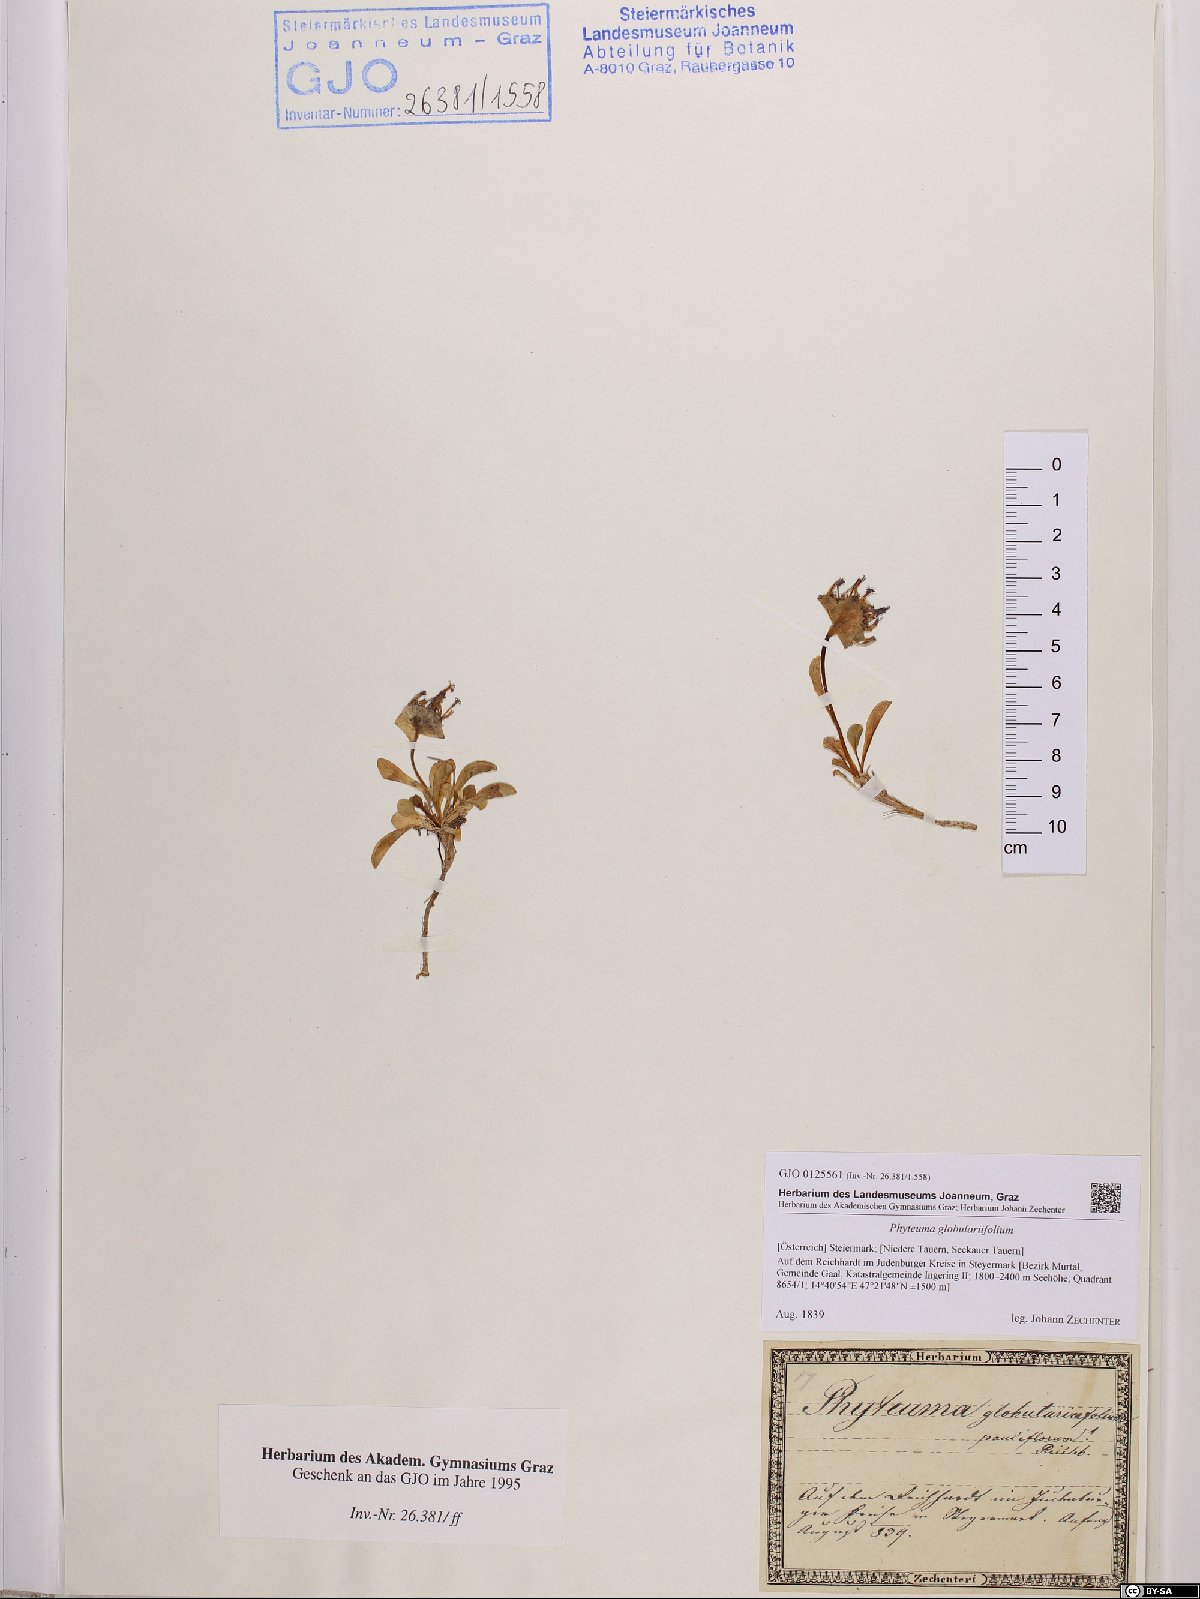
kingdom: Plantae
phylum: Tracheophyta
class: Magnoliopsida
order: Asterales
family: Campanulaceae
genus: Phyteuma
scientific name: Phyteuma globulariifolium
